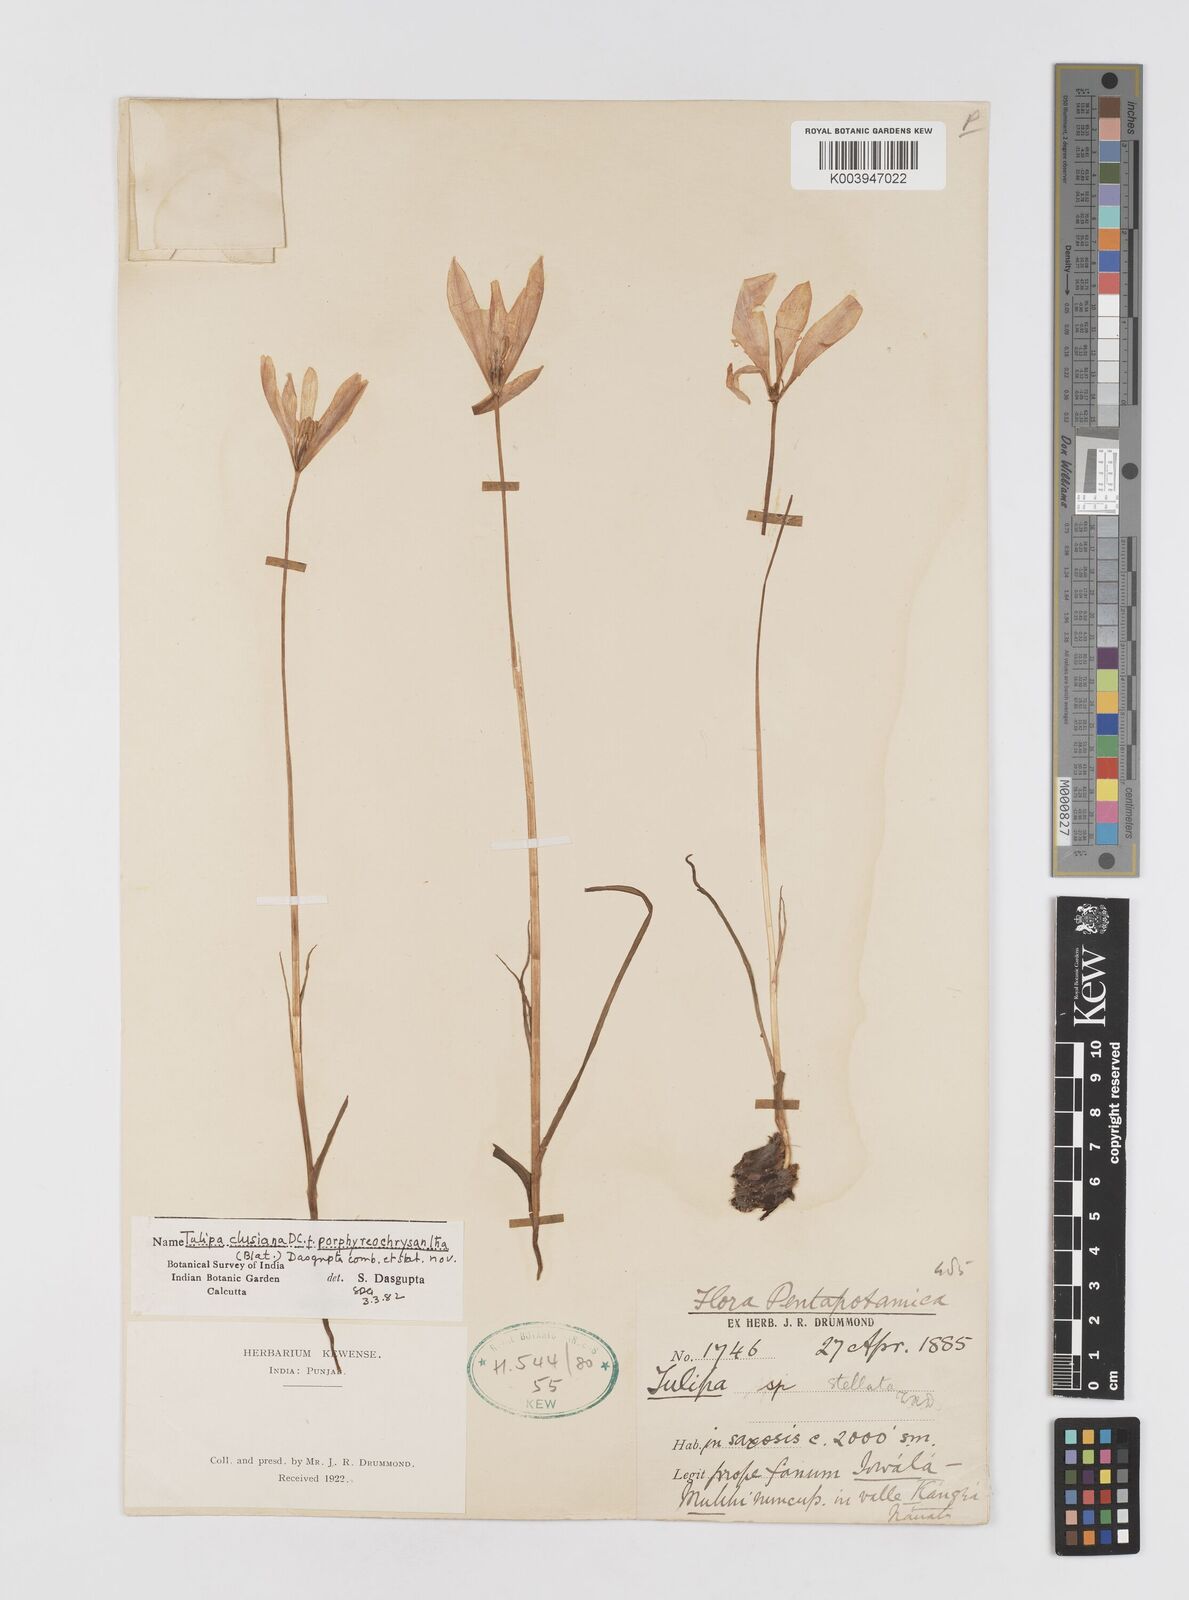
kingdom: Plantae
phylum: Tracheophyta
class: Liliopsida
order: Liliales
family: Liliaceae
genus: Tulipa
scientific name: Tulipa clusiana
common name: Lady tulip
